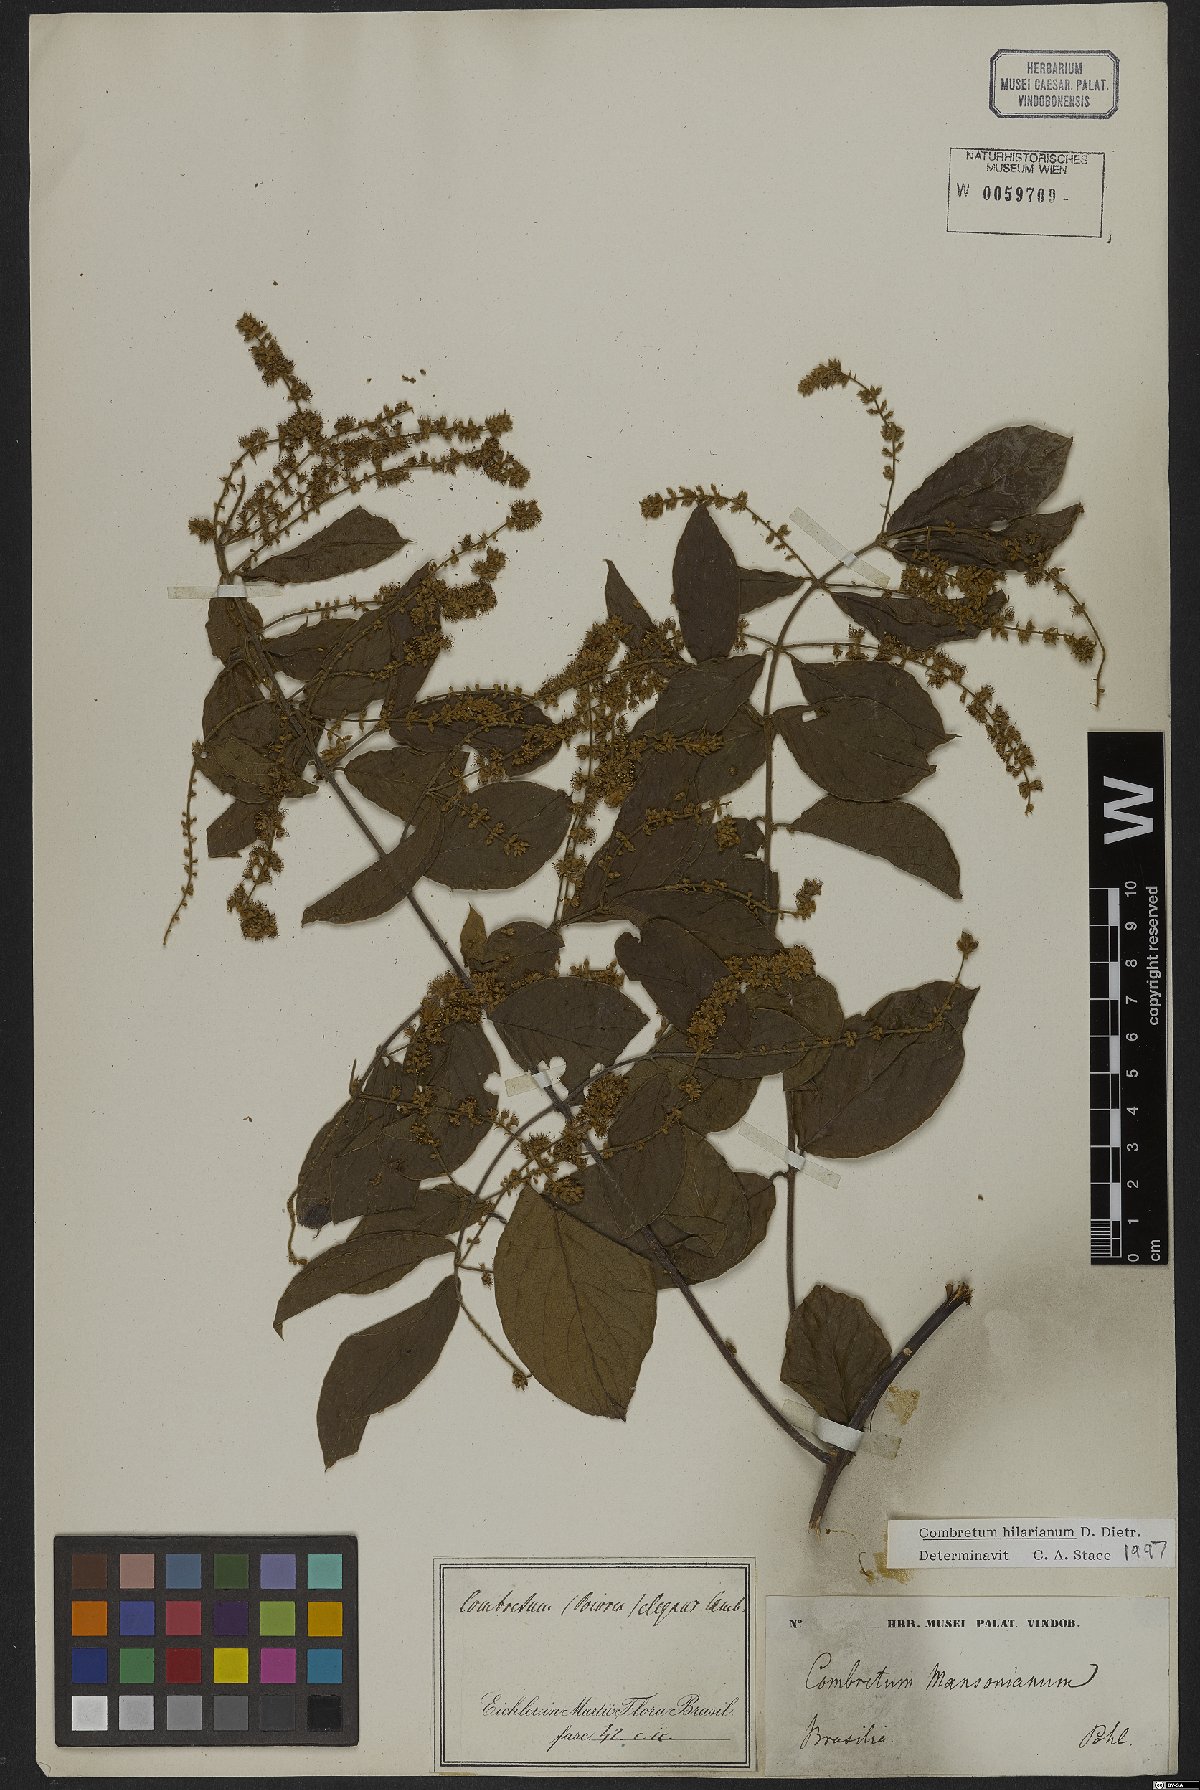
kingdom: Plantae
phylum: Tracheophyta
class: Magnoliopsida
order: Myrtales
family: Combretaceae
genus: Combretum
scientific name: Combretum hilarianum
